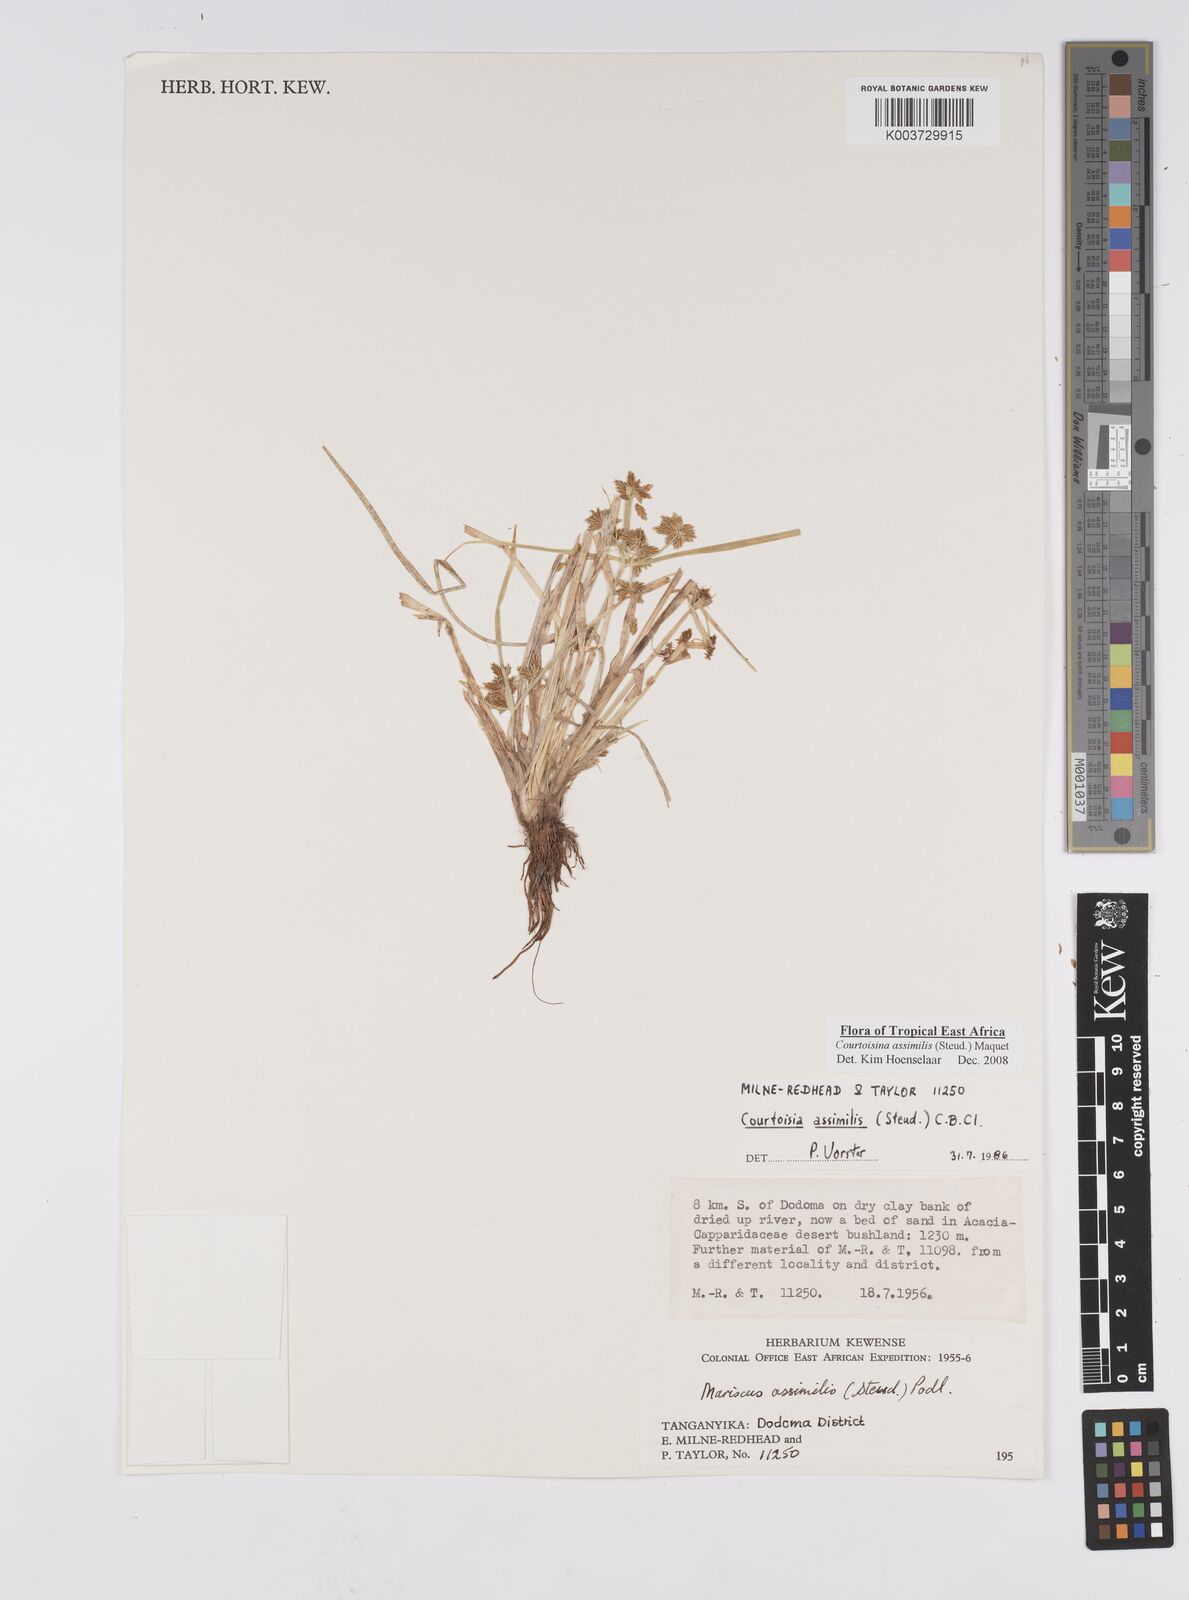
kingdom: Plantae
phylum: Tracheophyta
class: Liliopsida
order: Poales
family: Cyperaceae
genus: Cyperus
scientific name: Cyperus assimilis
